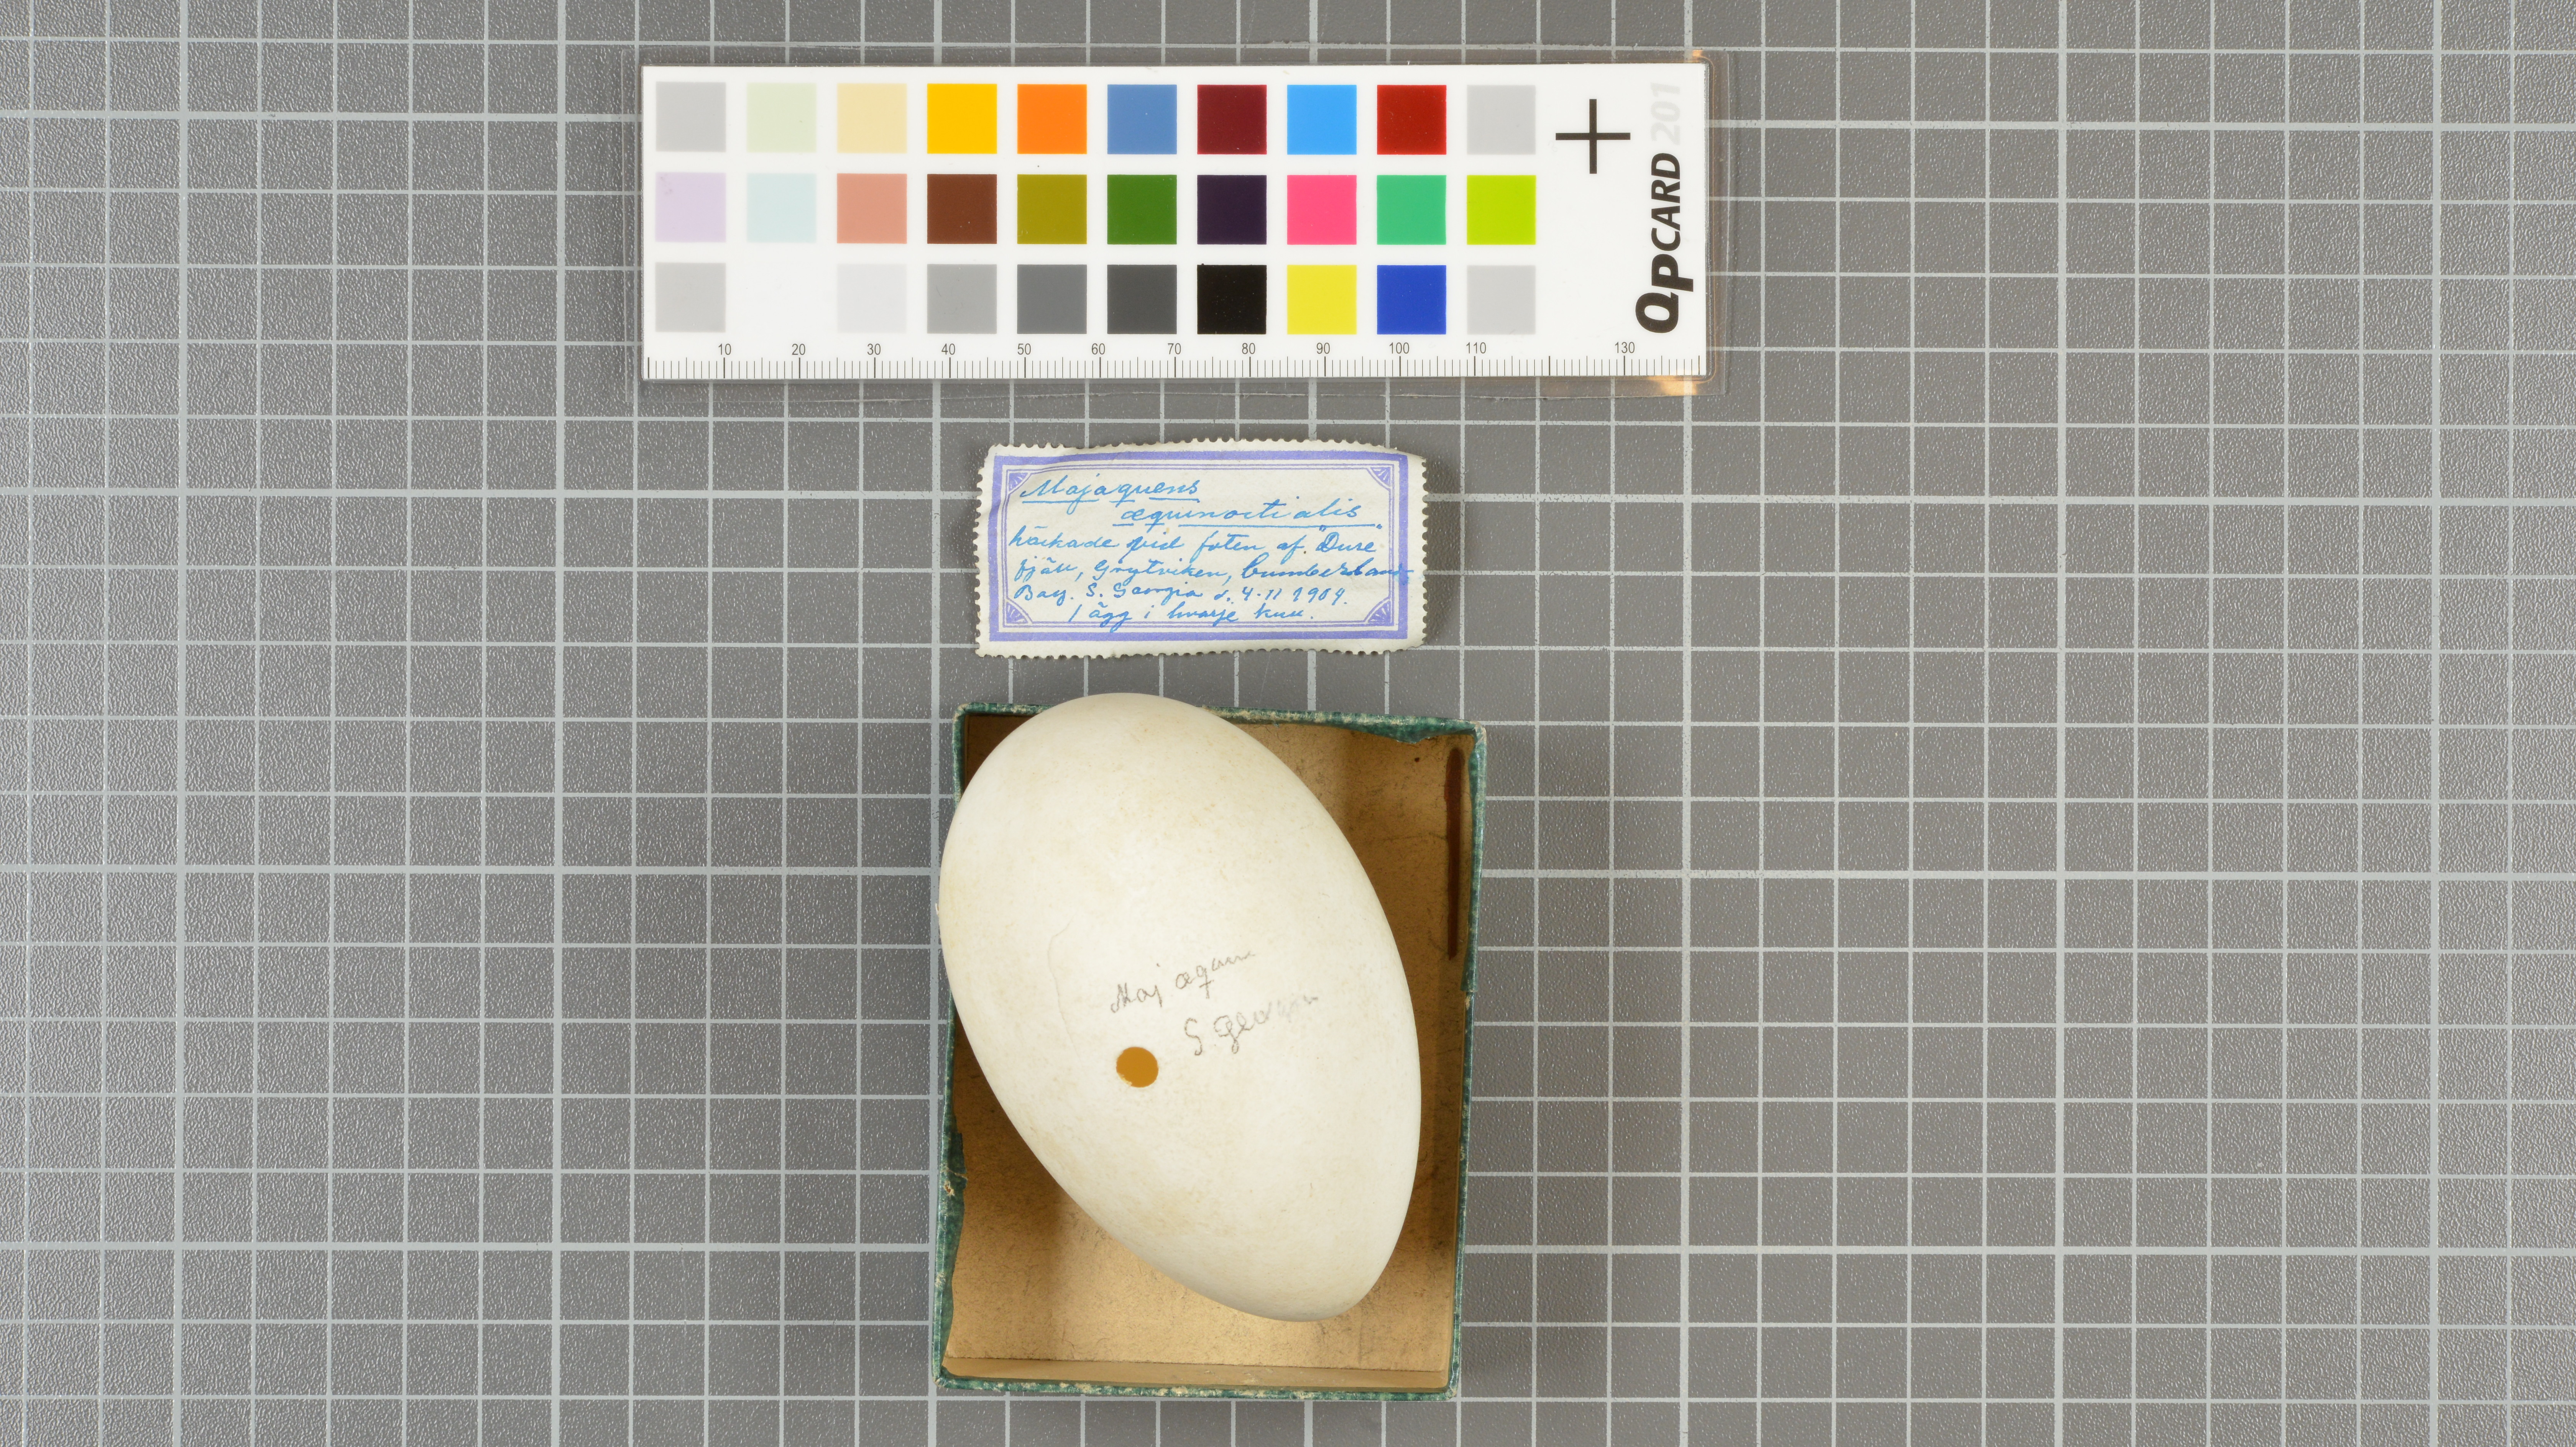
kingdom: Animalia
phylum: Chordata
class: Aves
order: Procellariiformes
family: Procellariidae
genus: Procellaria
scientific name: Procellaria aequinoctialis
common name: White-chinned petrel
